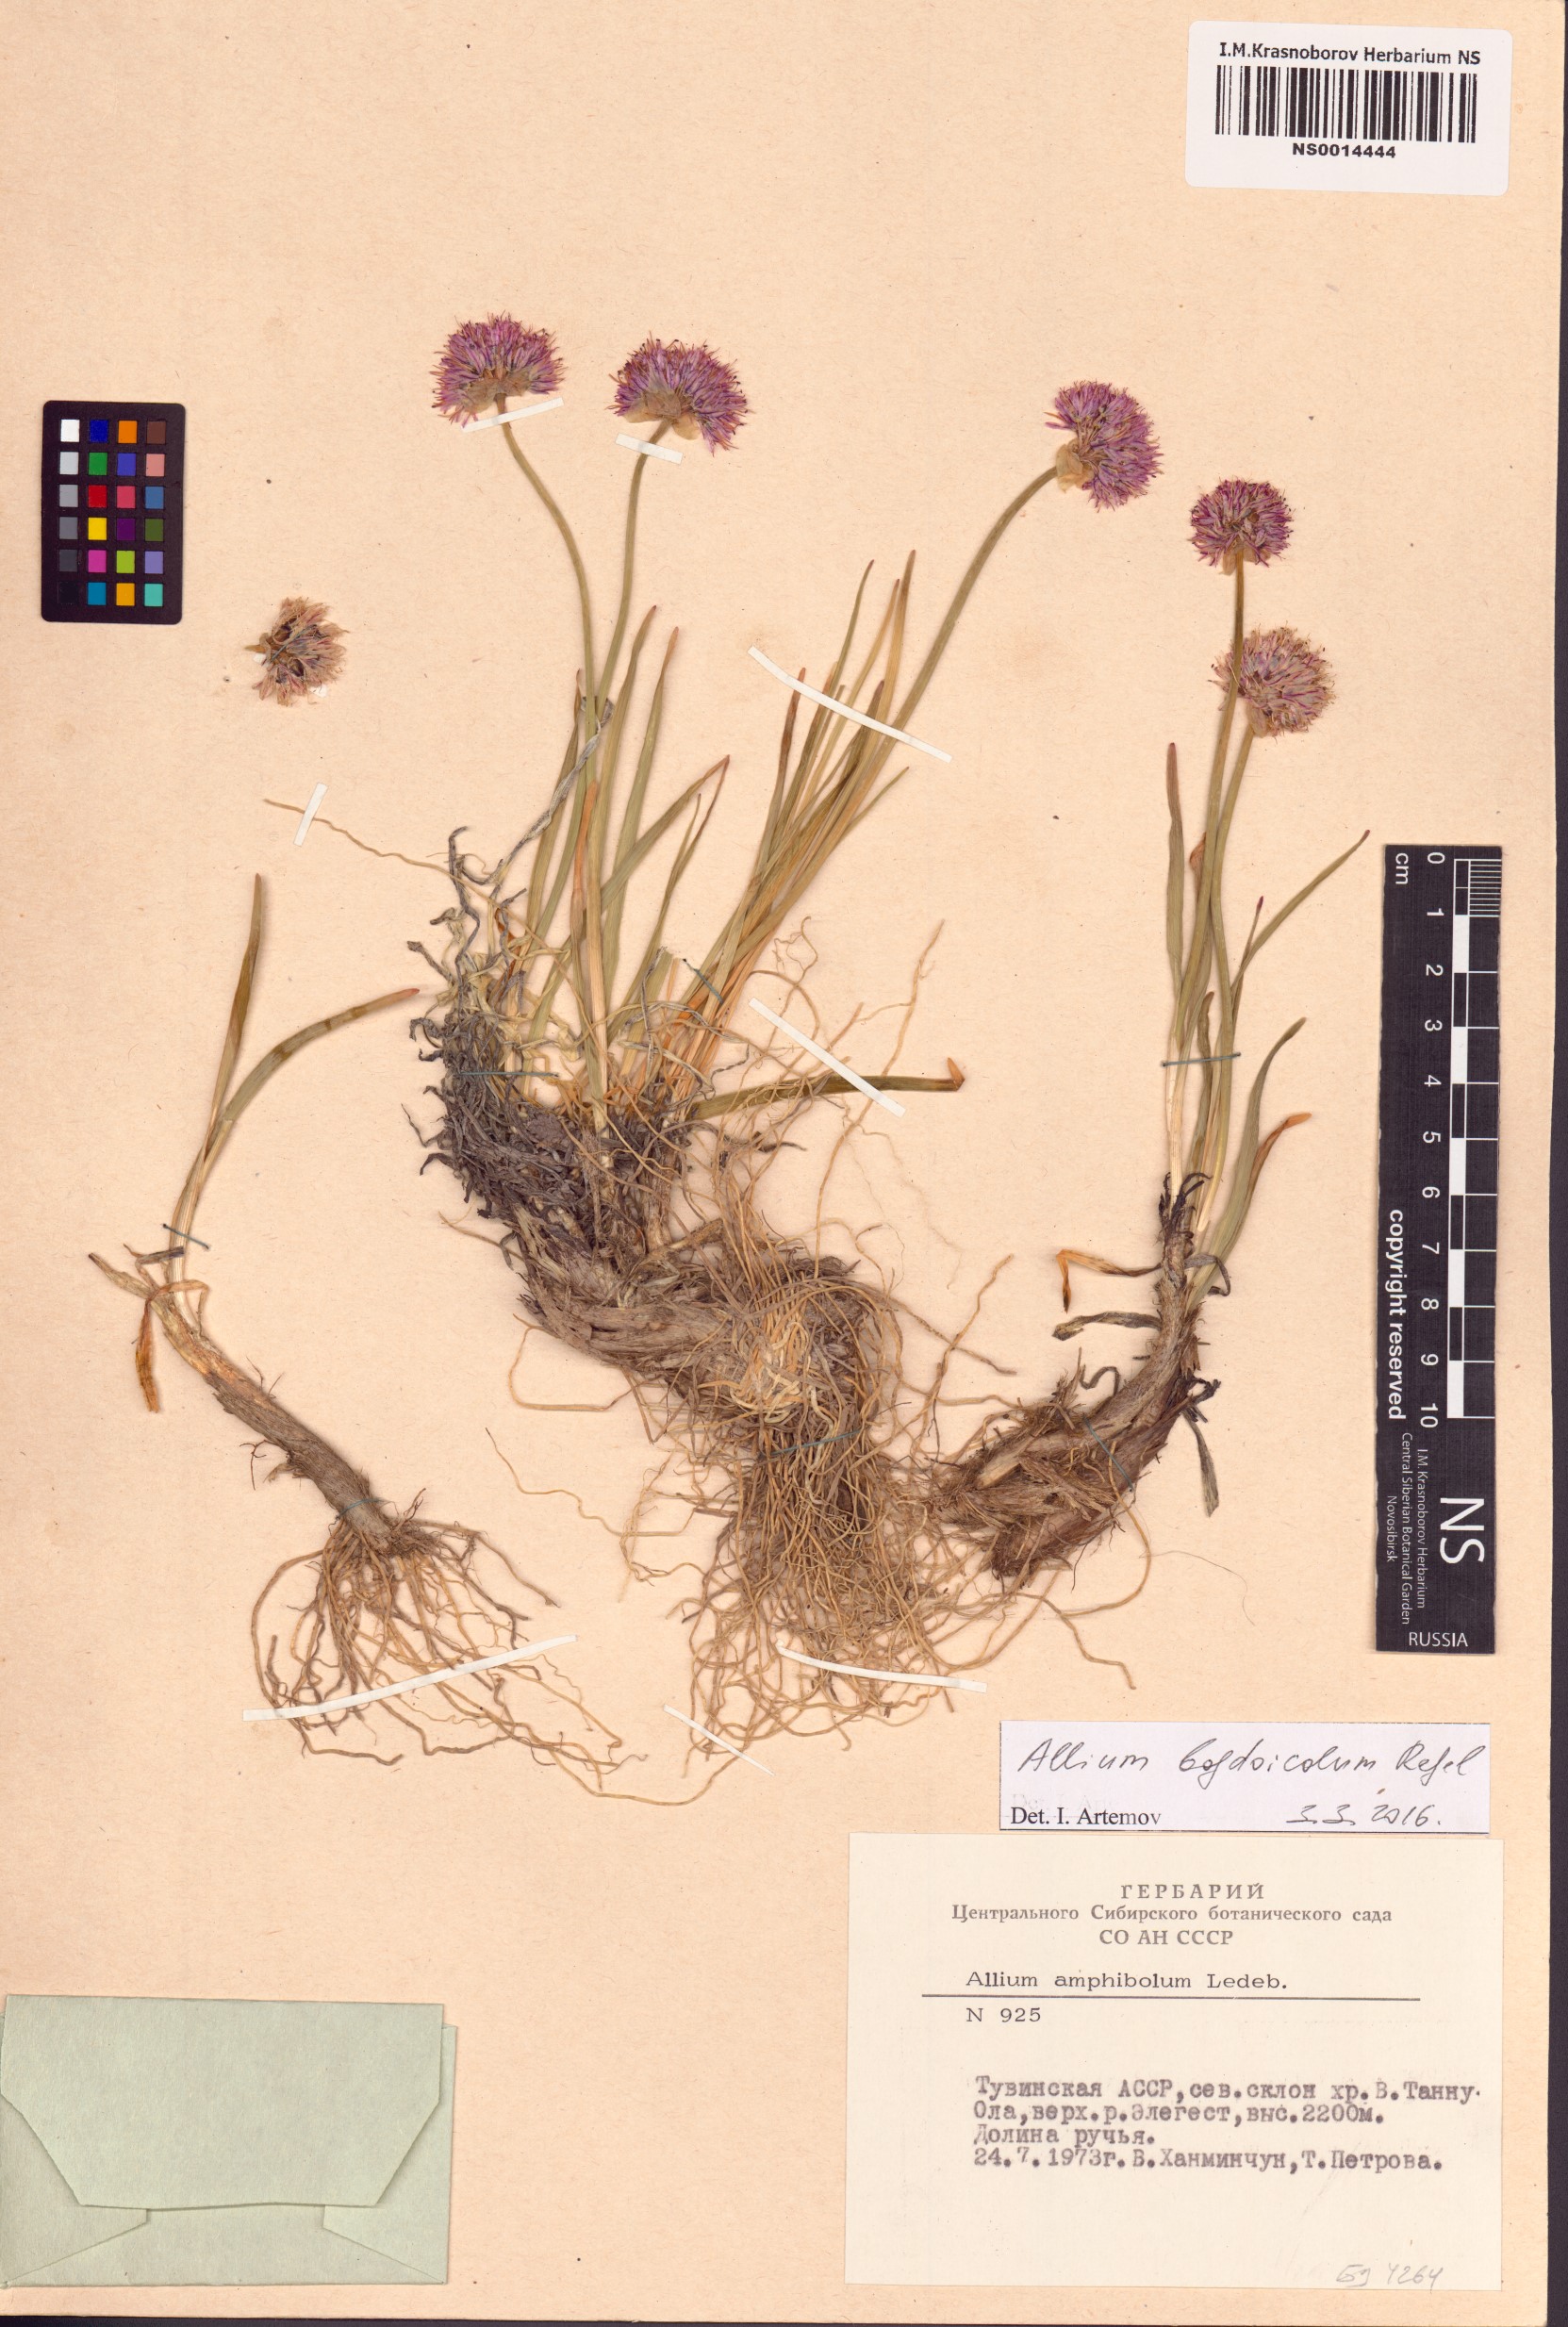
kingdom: Plantae
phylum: Tracheophyta
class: Liliopsida
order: Asparagales
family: Amaryllidaceae
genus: Allium
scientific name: Allium schrenkii
